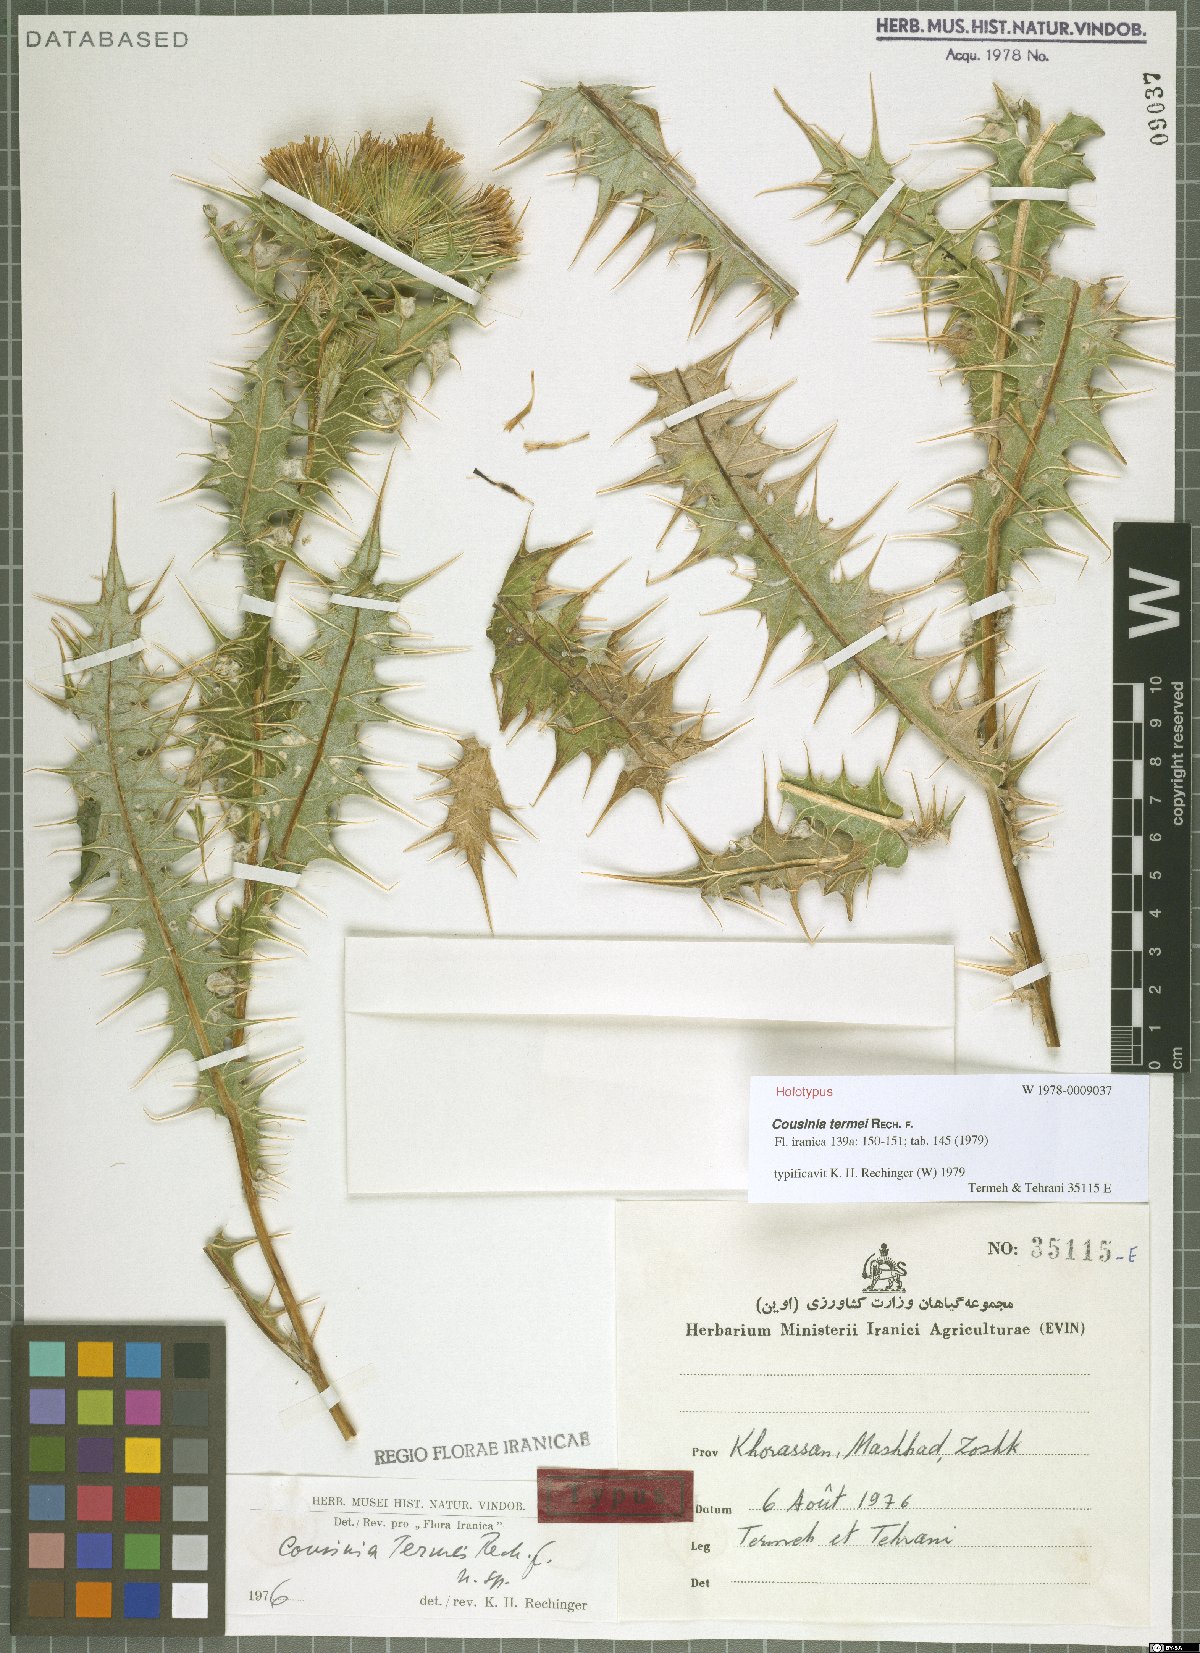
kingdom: Plantae
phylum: Tracheophyta
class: Magnoliopsida
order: Asterales
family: Asteraceae
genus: Cousinia
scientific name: Cousinia termei
